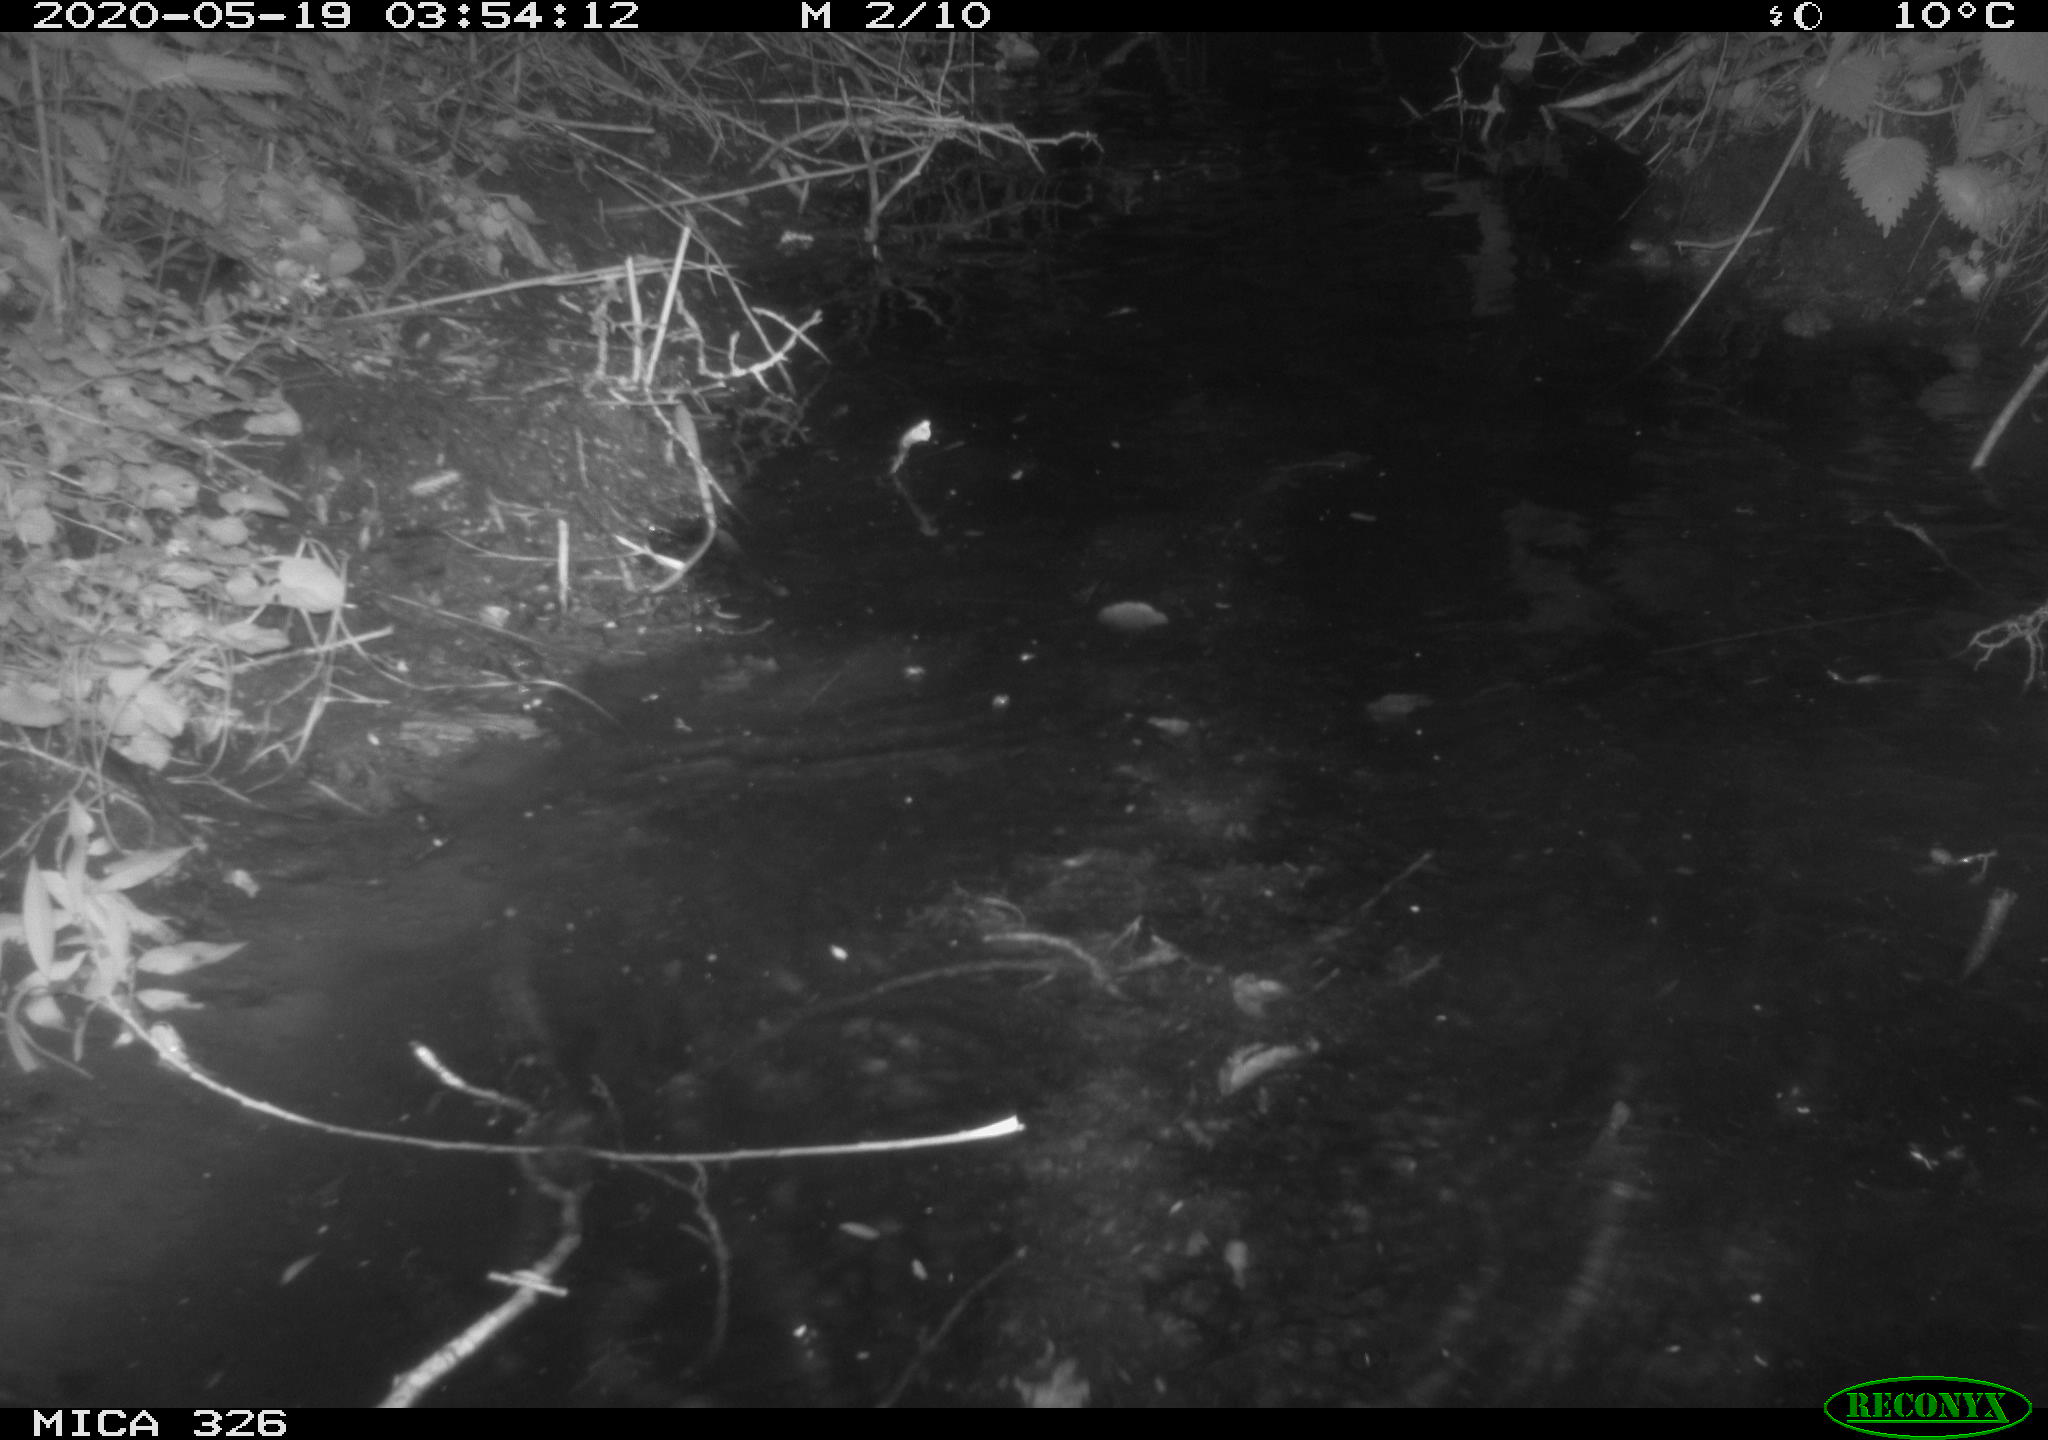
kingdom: Animalia
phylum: Chordata
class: Mammalia
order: Rodentia
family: Cricetidae
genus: Ondatra
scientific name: Ondatra zibethicus
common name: Muskrat
